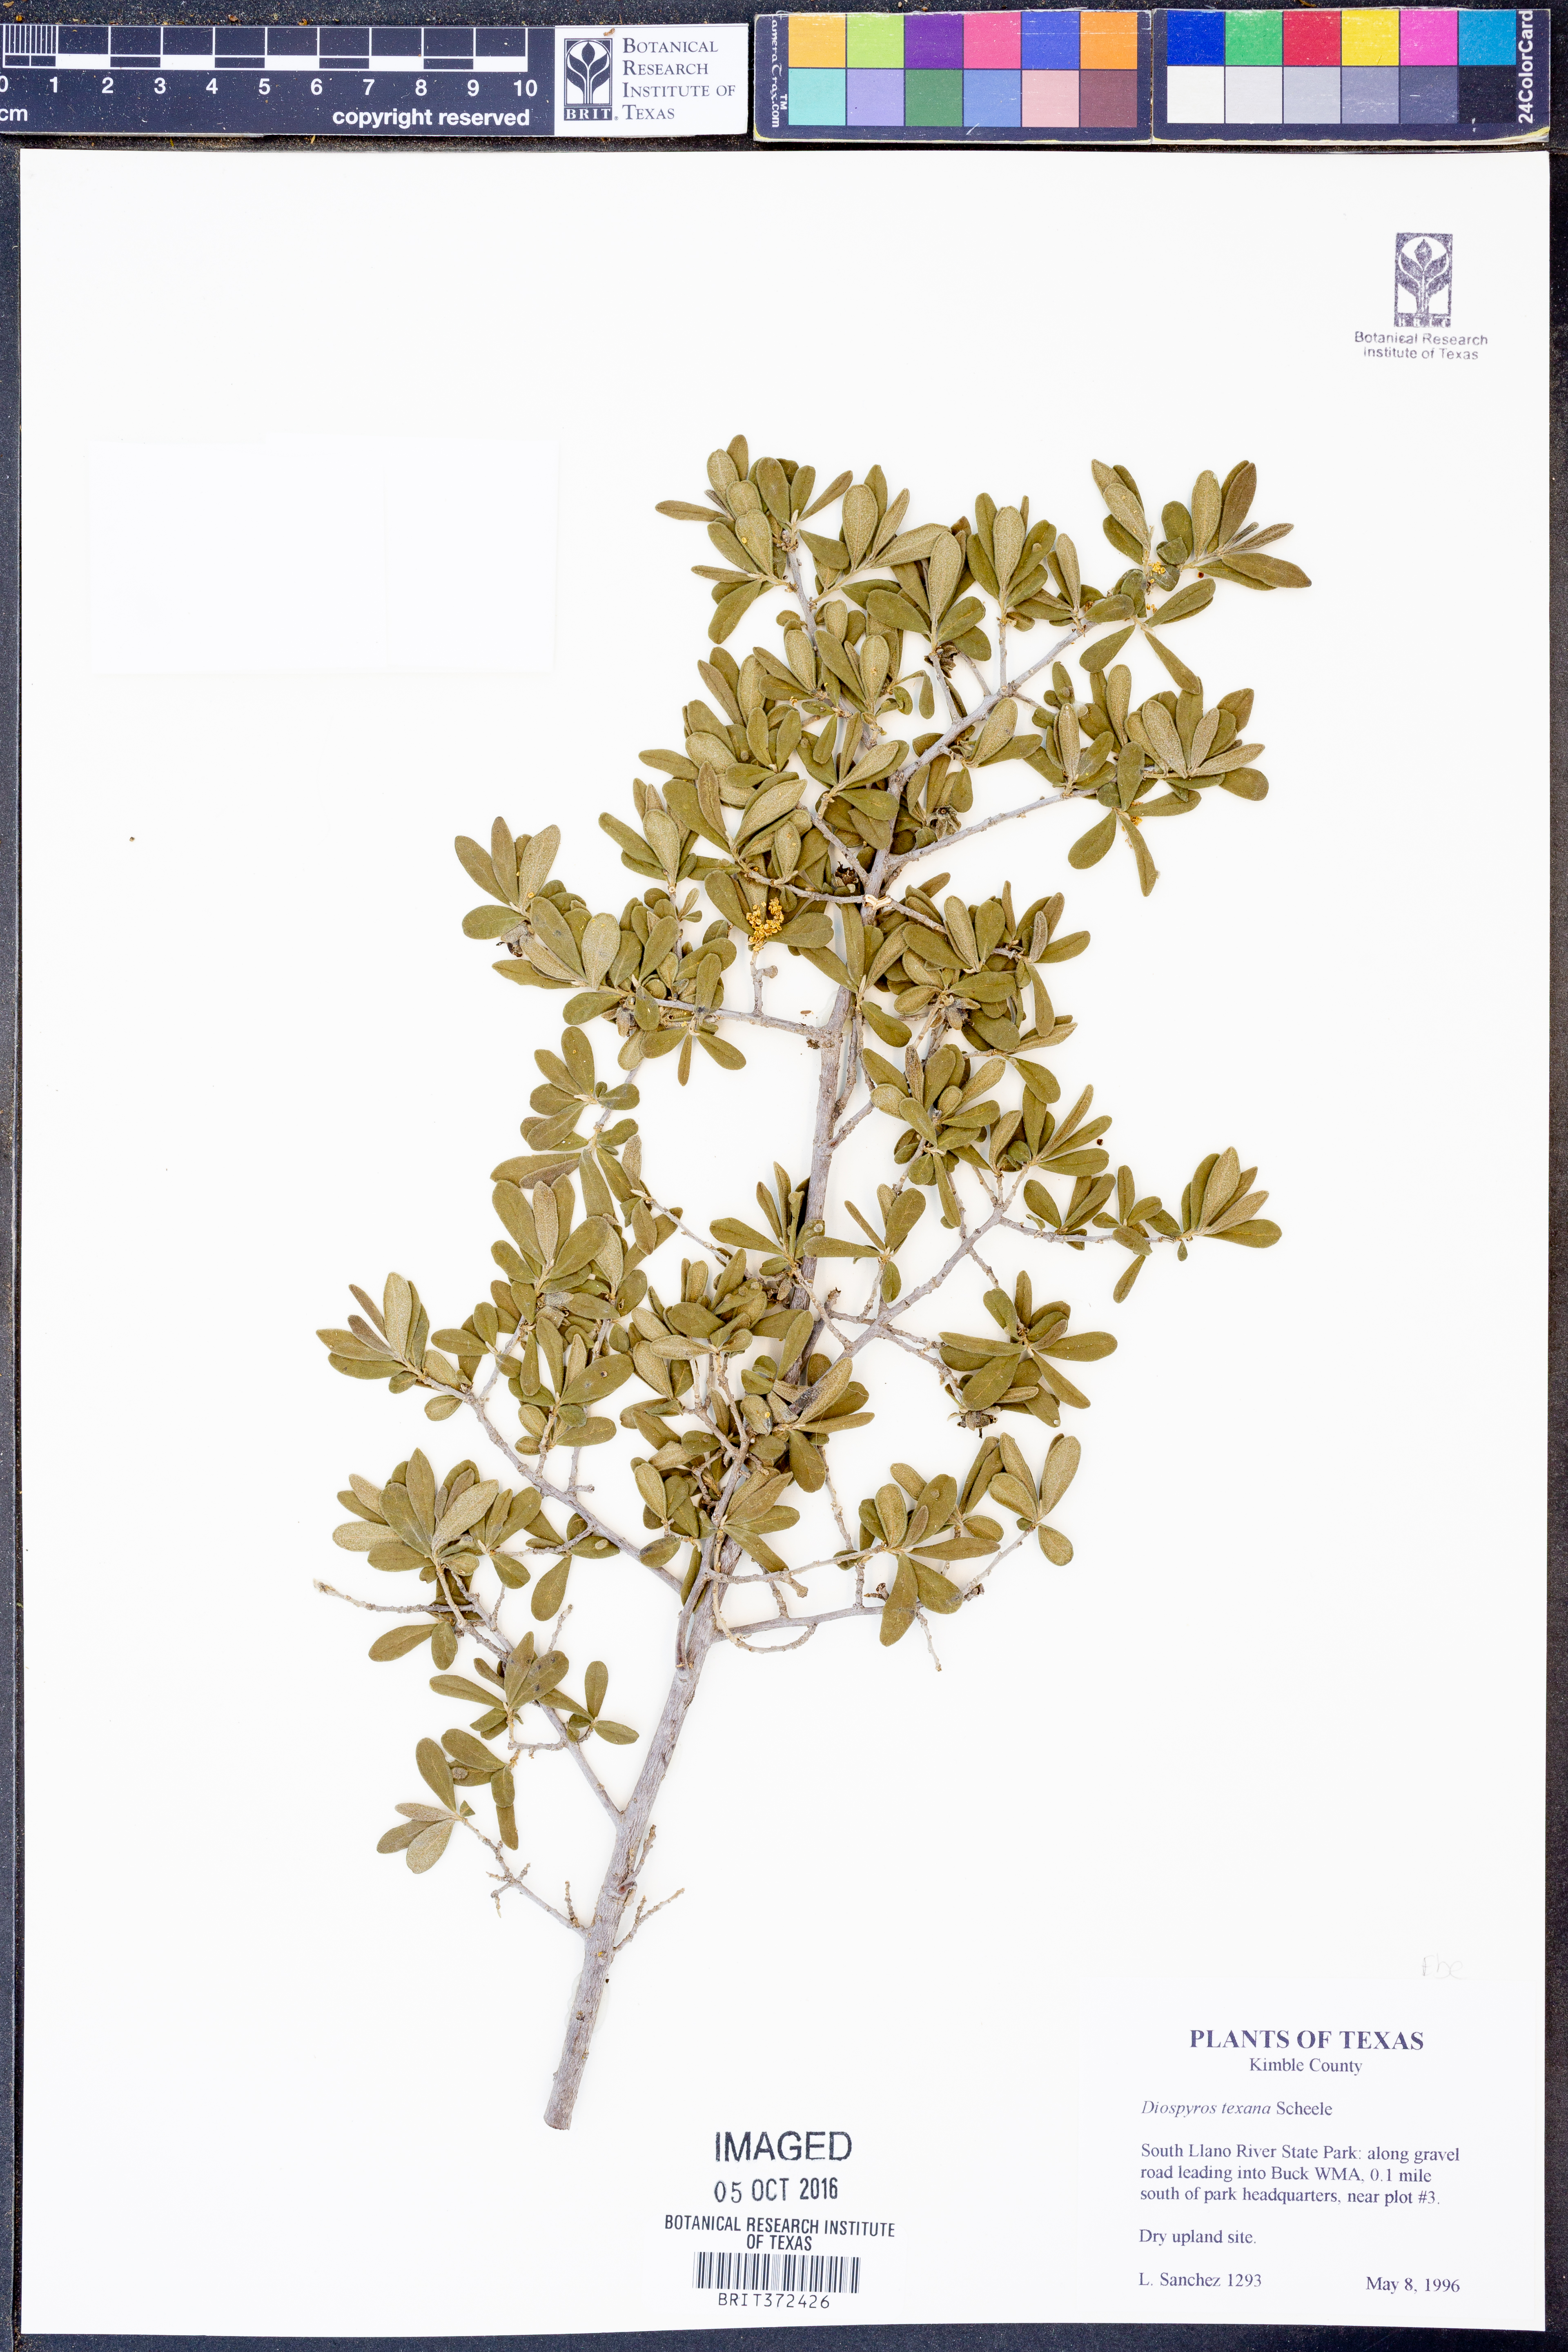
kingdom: Plantae
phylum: Tracheophyta
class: Magnoliopsida
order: Ericales
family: Ebenaceae
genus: Diospyros
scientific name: Diospyros texana
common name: Texas persimmon
